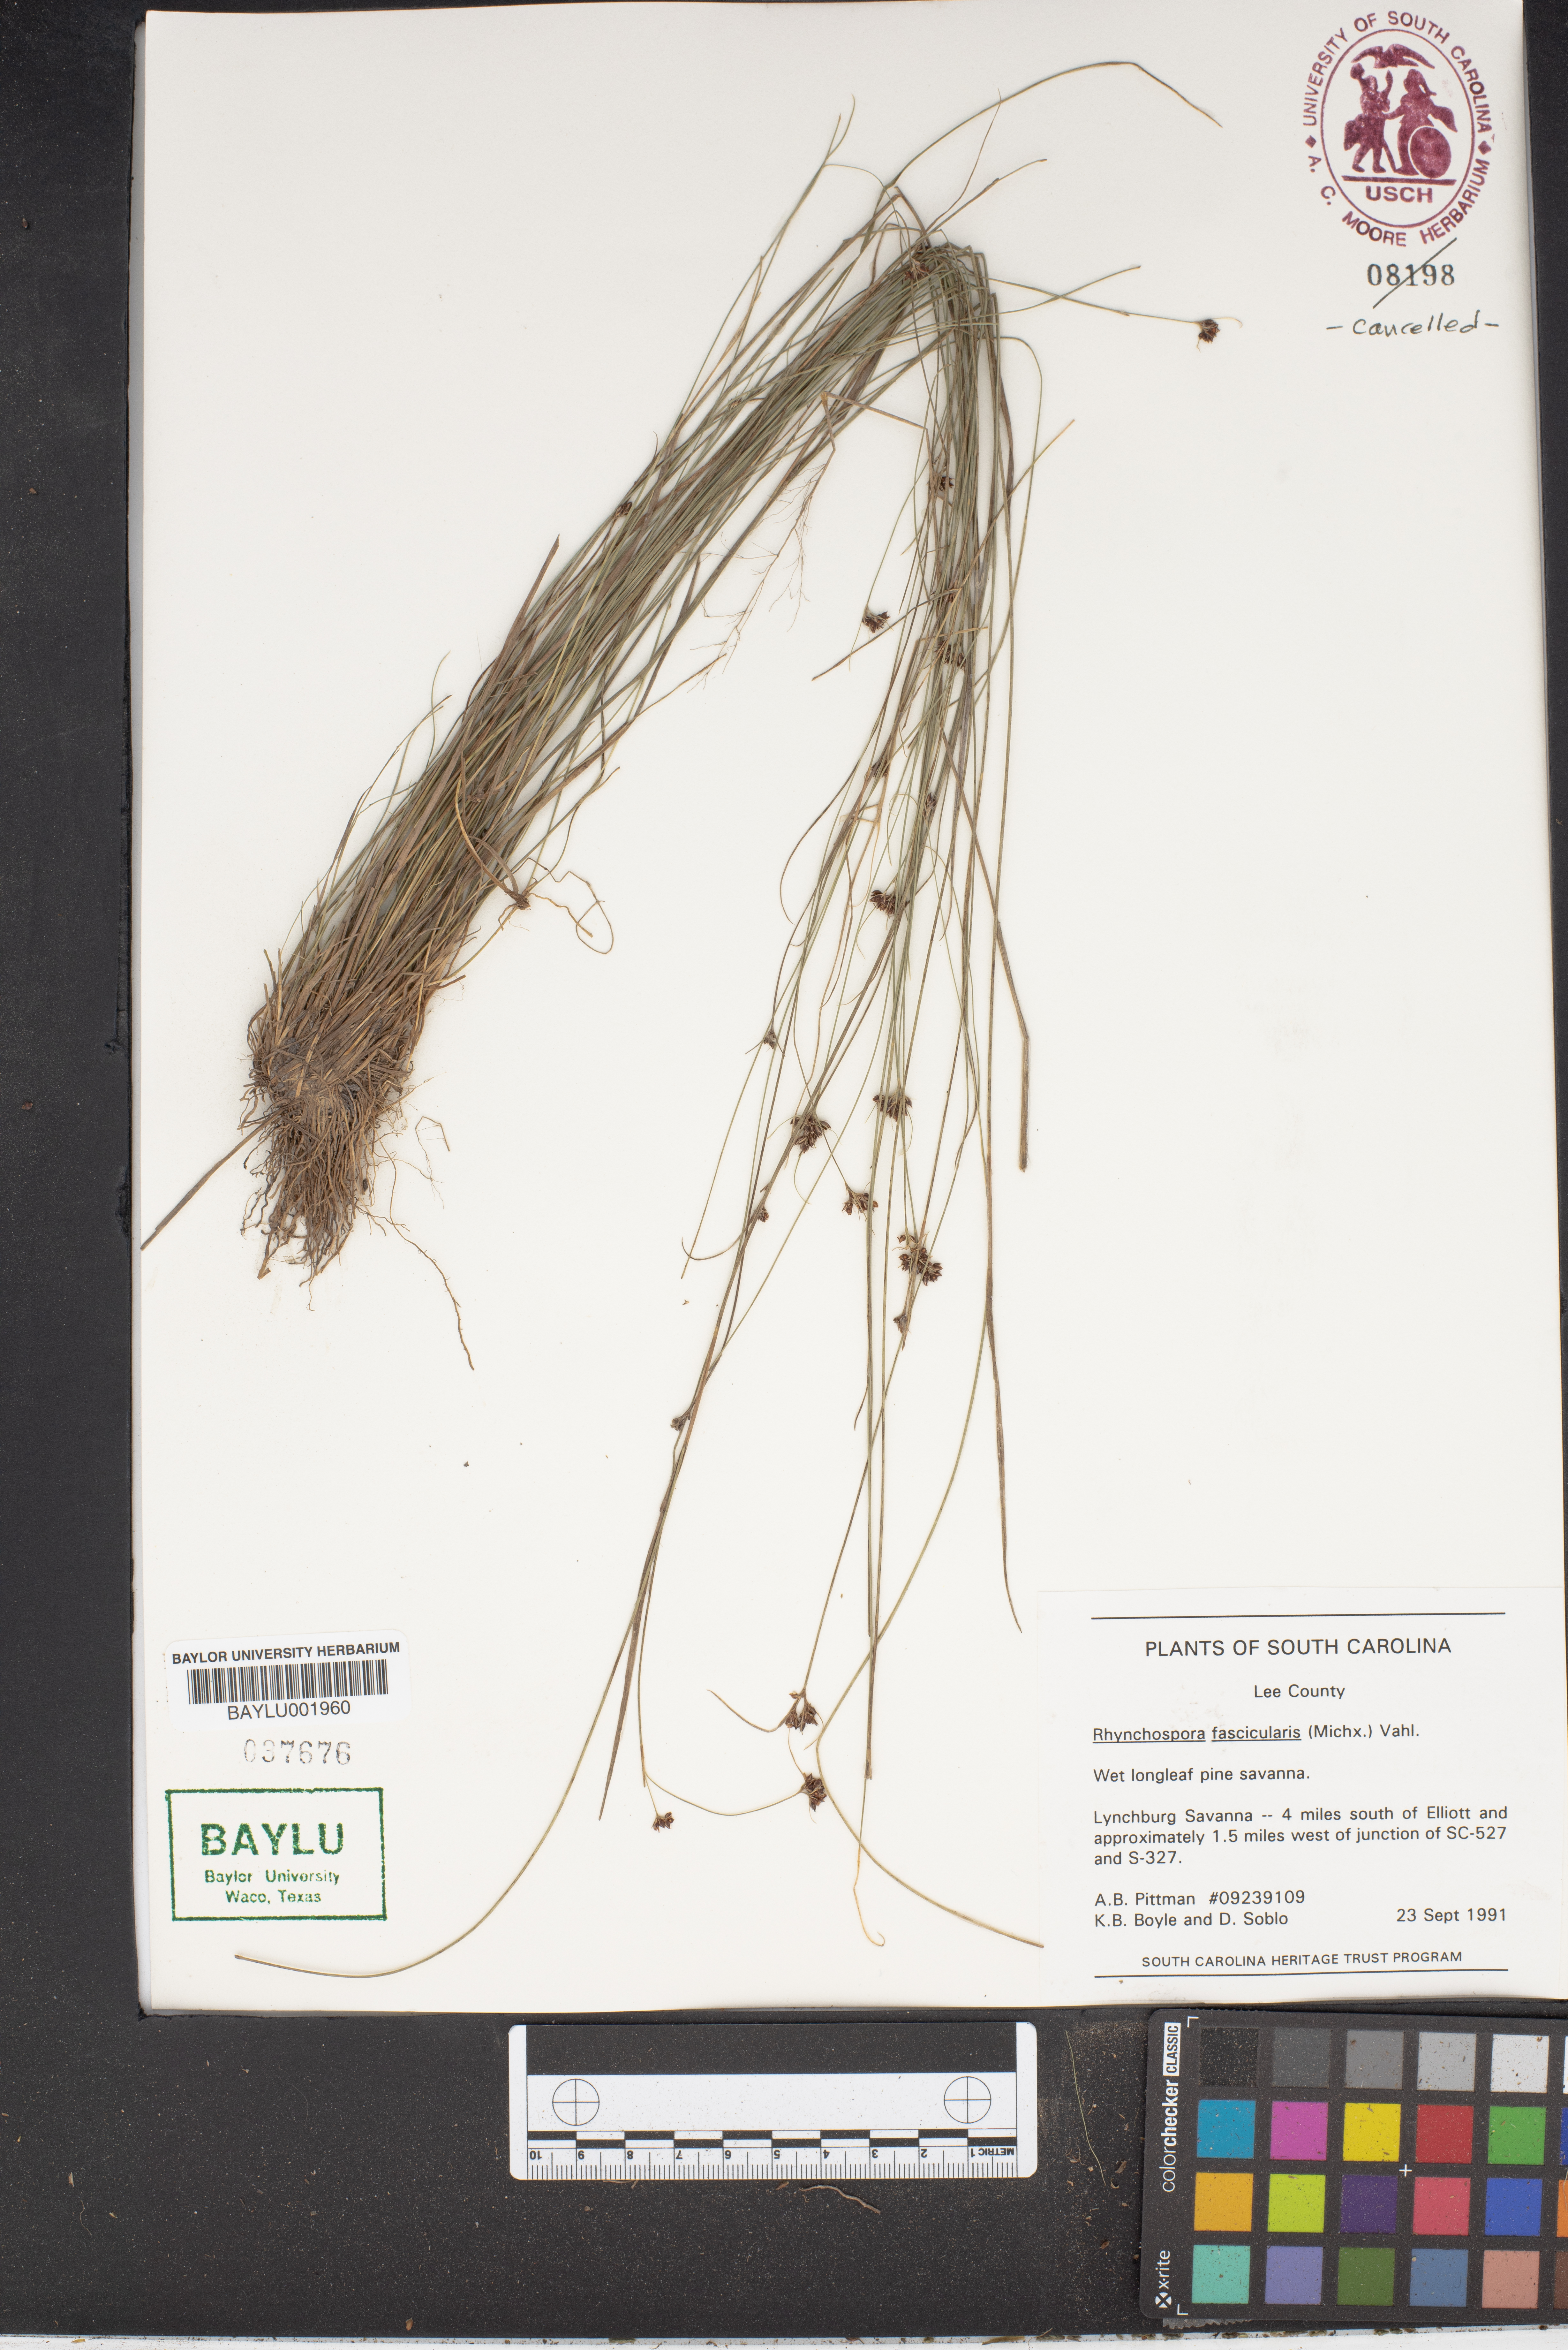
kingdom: Plantae
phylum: Tracheophyta
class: Liliopsida
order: Poales
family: Cyperaceae
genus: Rhynchospora
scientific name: Rhynchospora fascicularis
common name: Fascicled beak sedge
